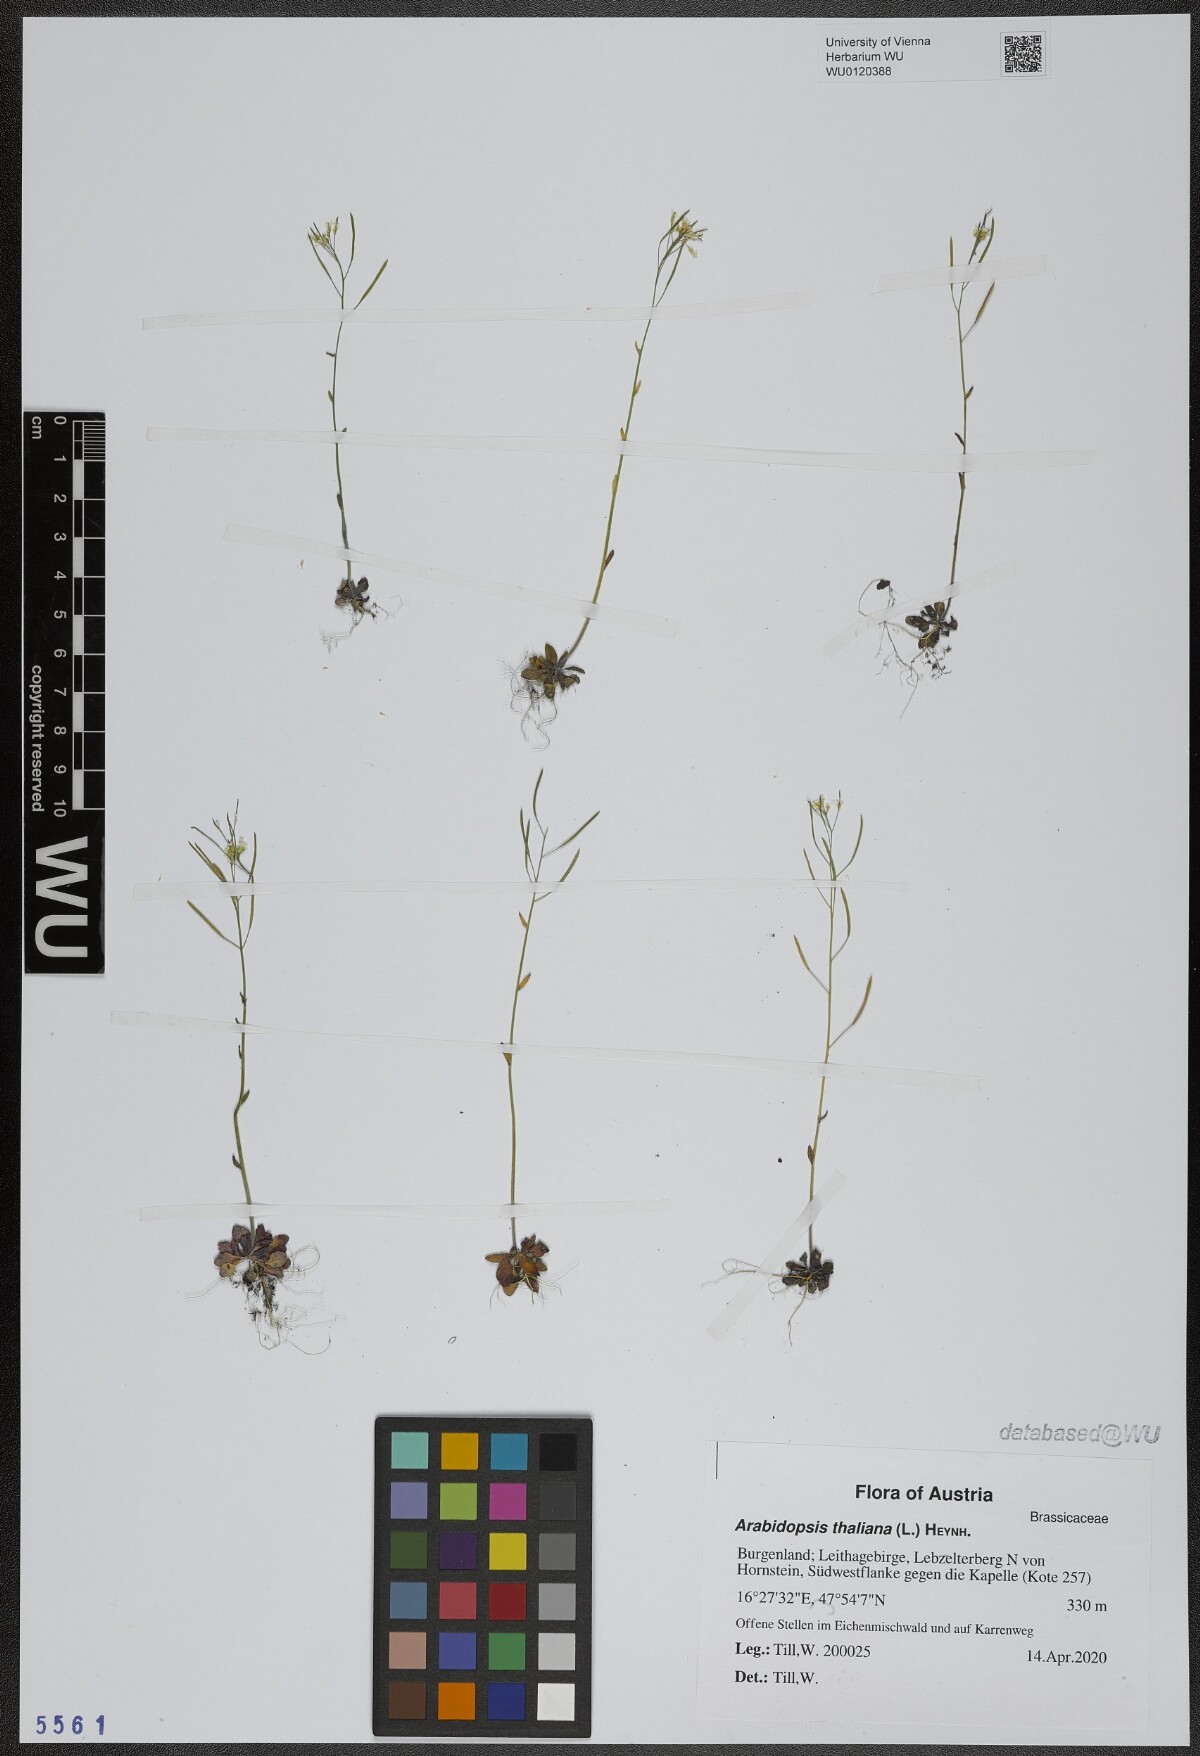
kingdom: Plantae
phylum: Tracheophyta
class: Magnoliopsida
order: Brassicales
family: Brassicaceae
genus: Arabidopsis
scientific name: Arabidopsis thaliana
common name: Thale cress
